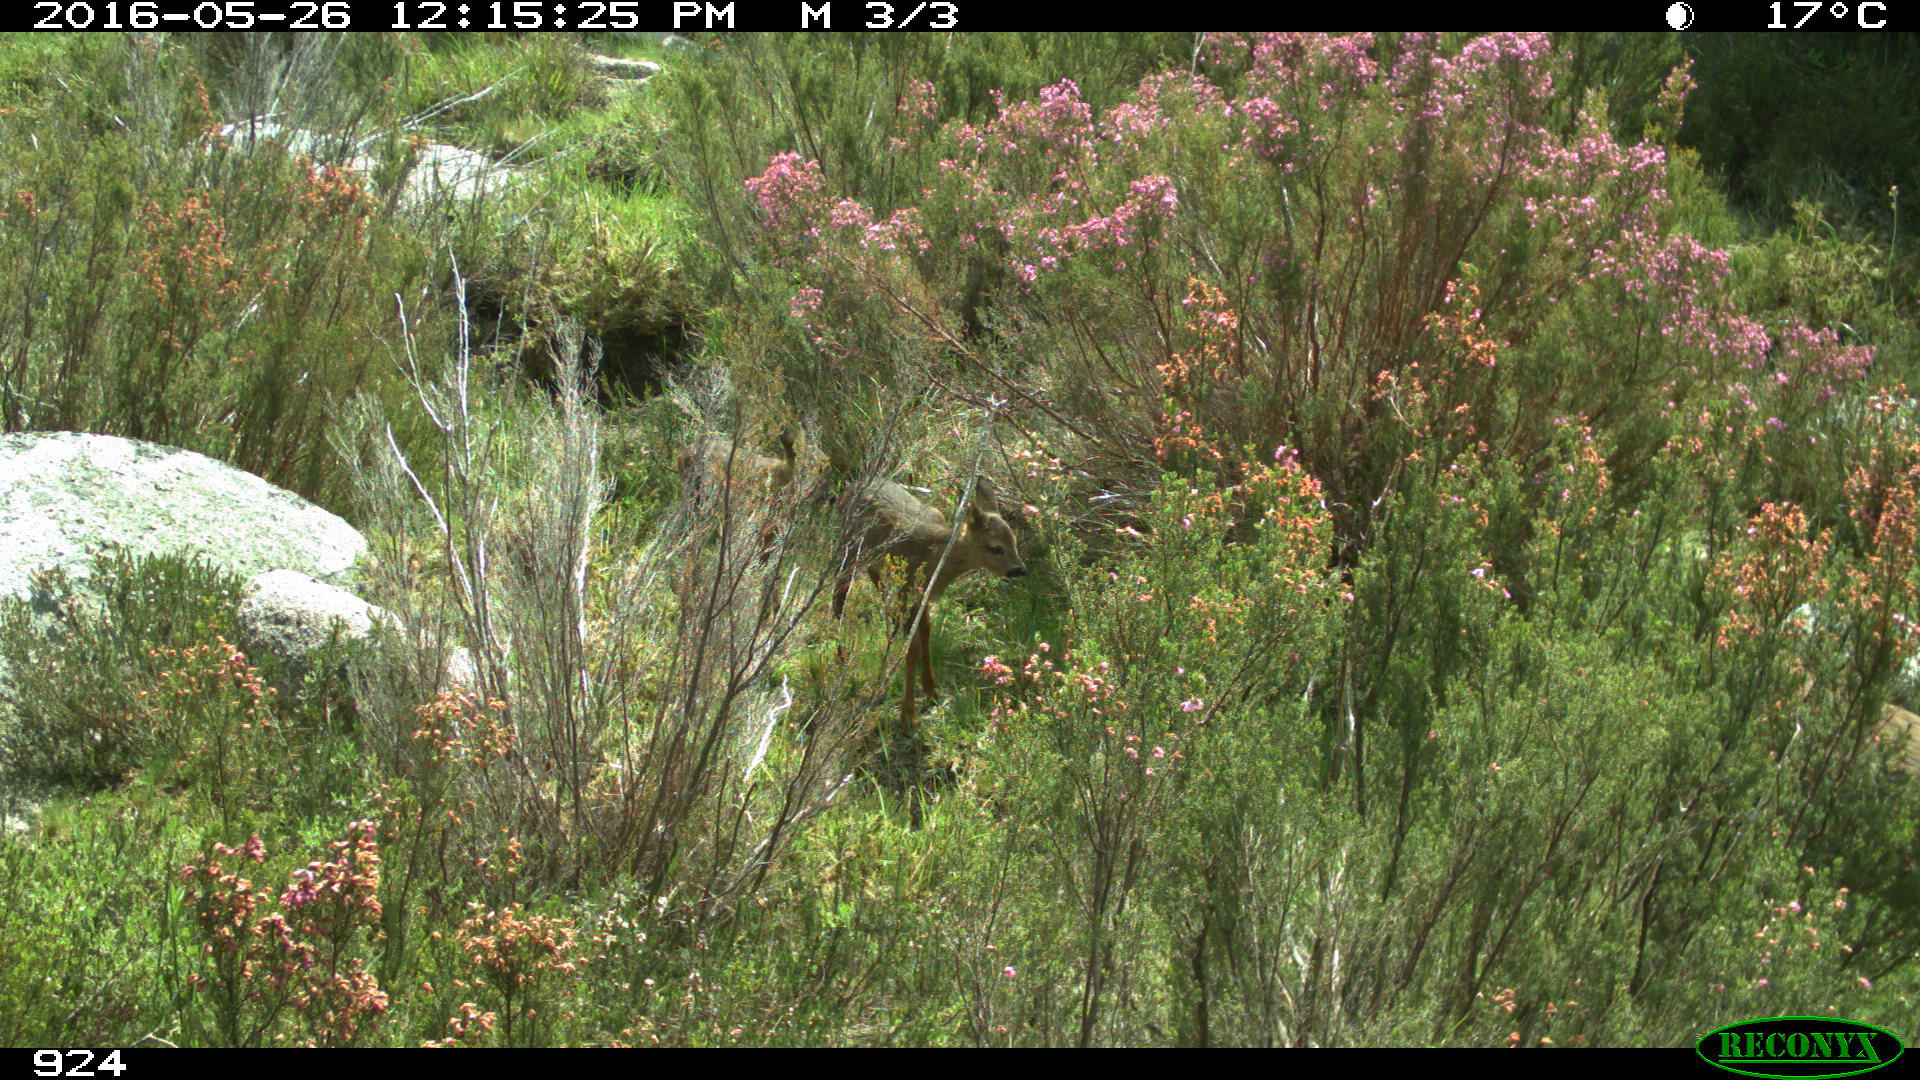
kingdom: Animalia
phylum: Chordata
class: Mammalia
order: Artiodactyla
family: Cervidae
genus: Capreolus
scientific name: Capreolus capreolus
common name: Western roe deer
